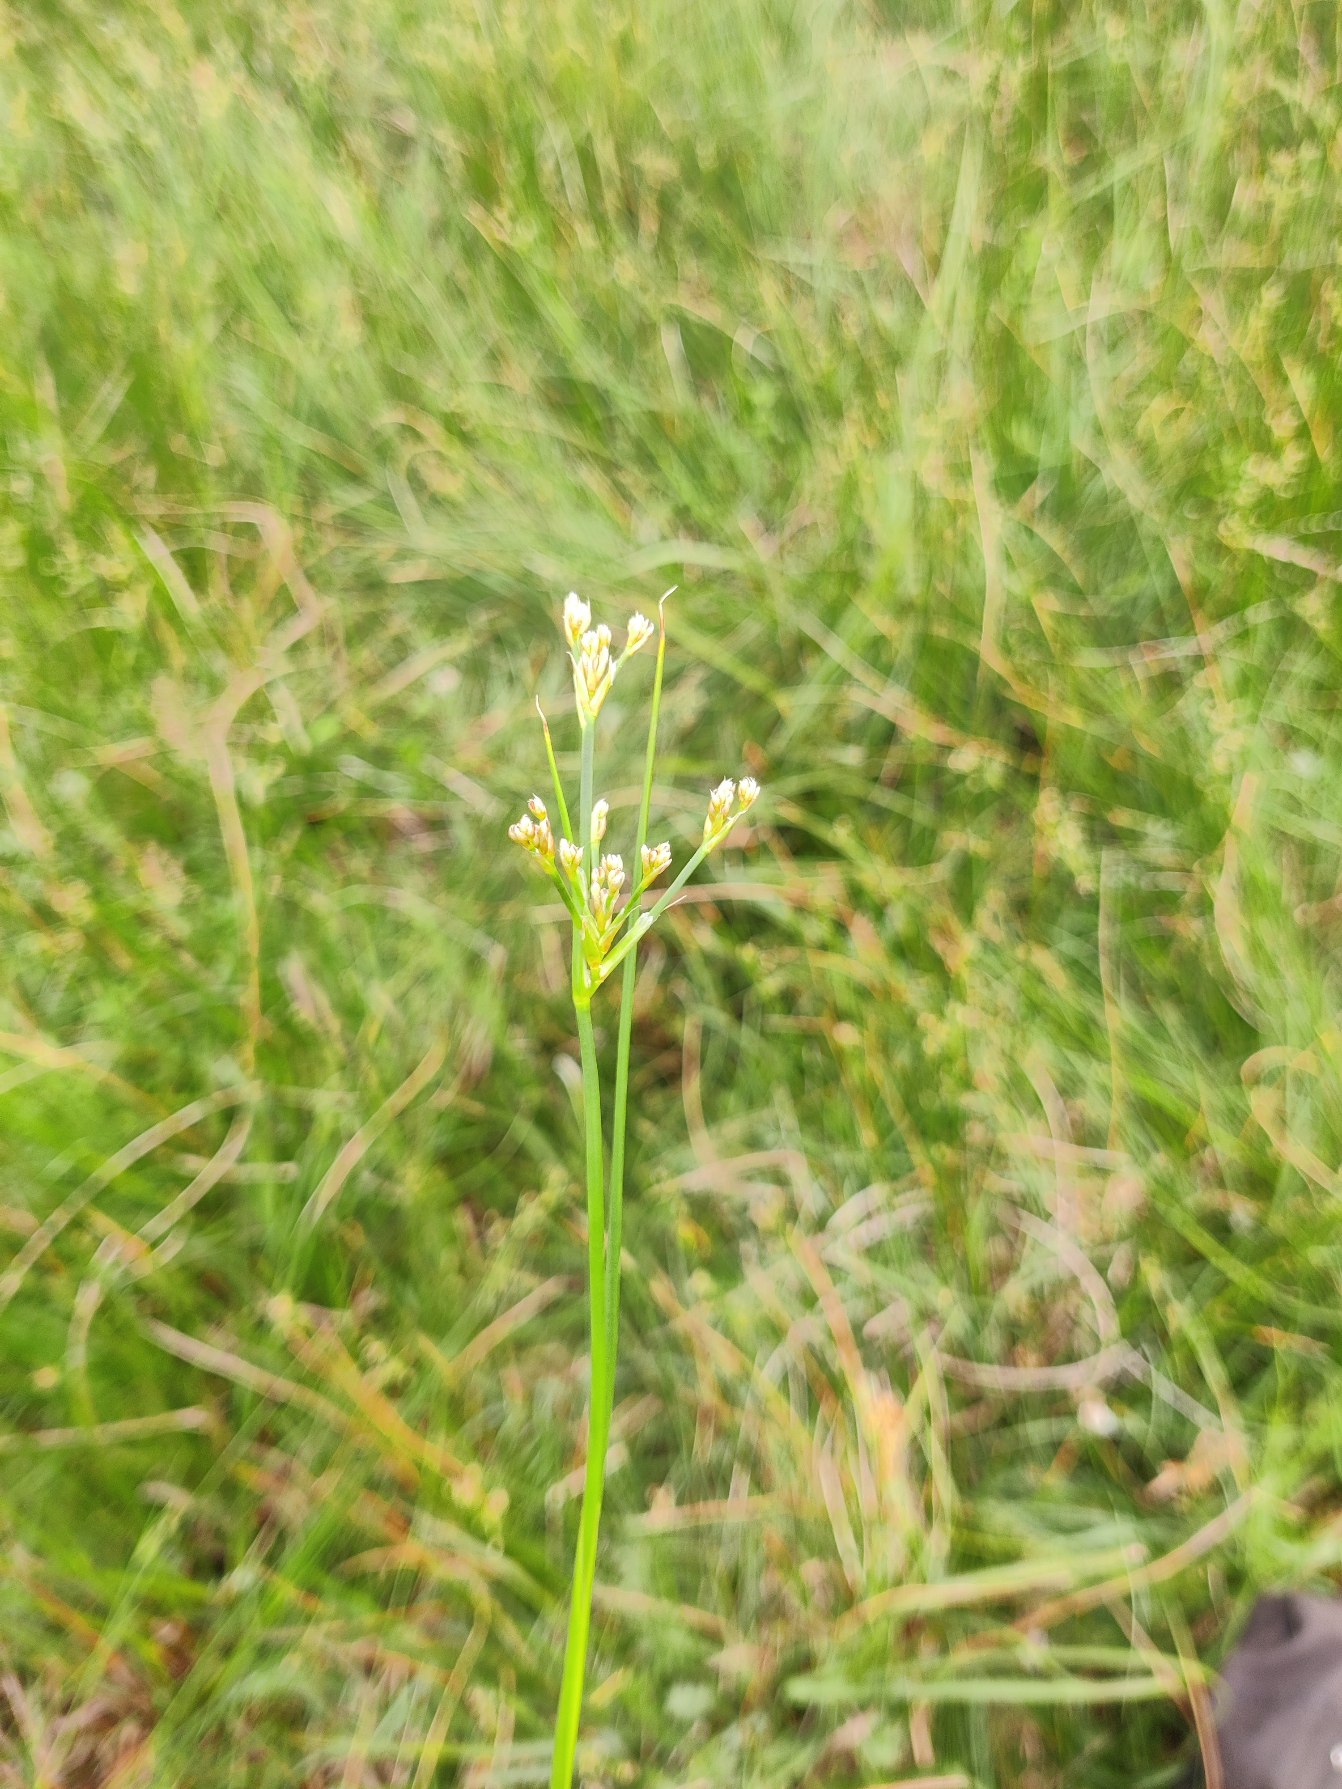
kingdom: Plantae
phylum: Tracheophyta
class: Liliopsida
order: Poales
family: Juncaceae
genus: Juncus
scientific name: Juncus subnodulosus
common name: Butblomstret siv
